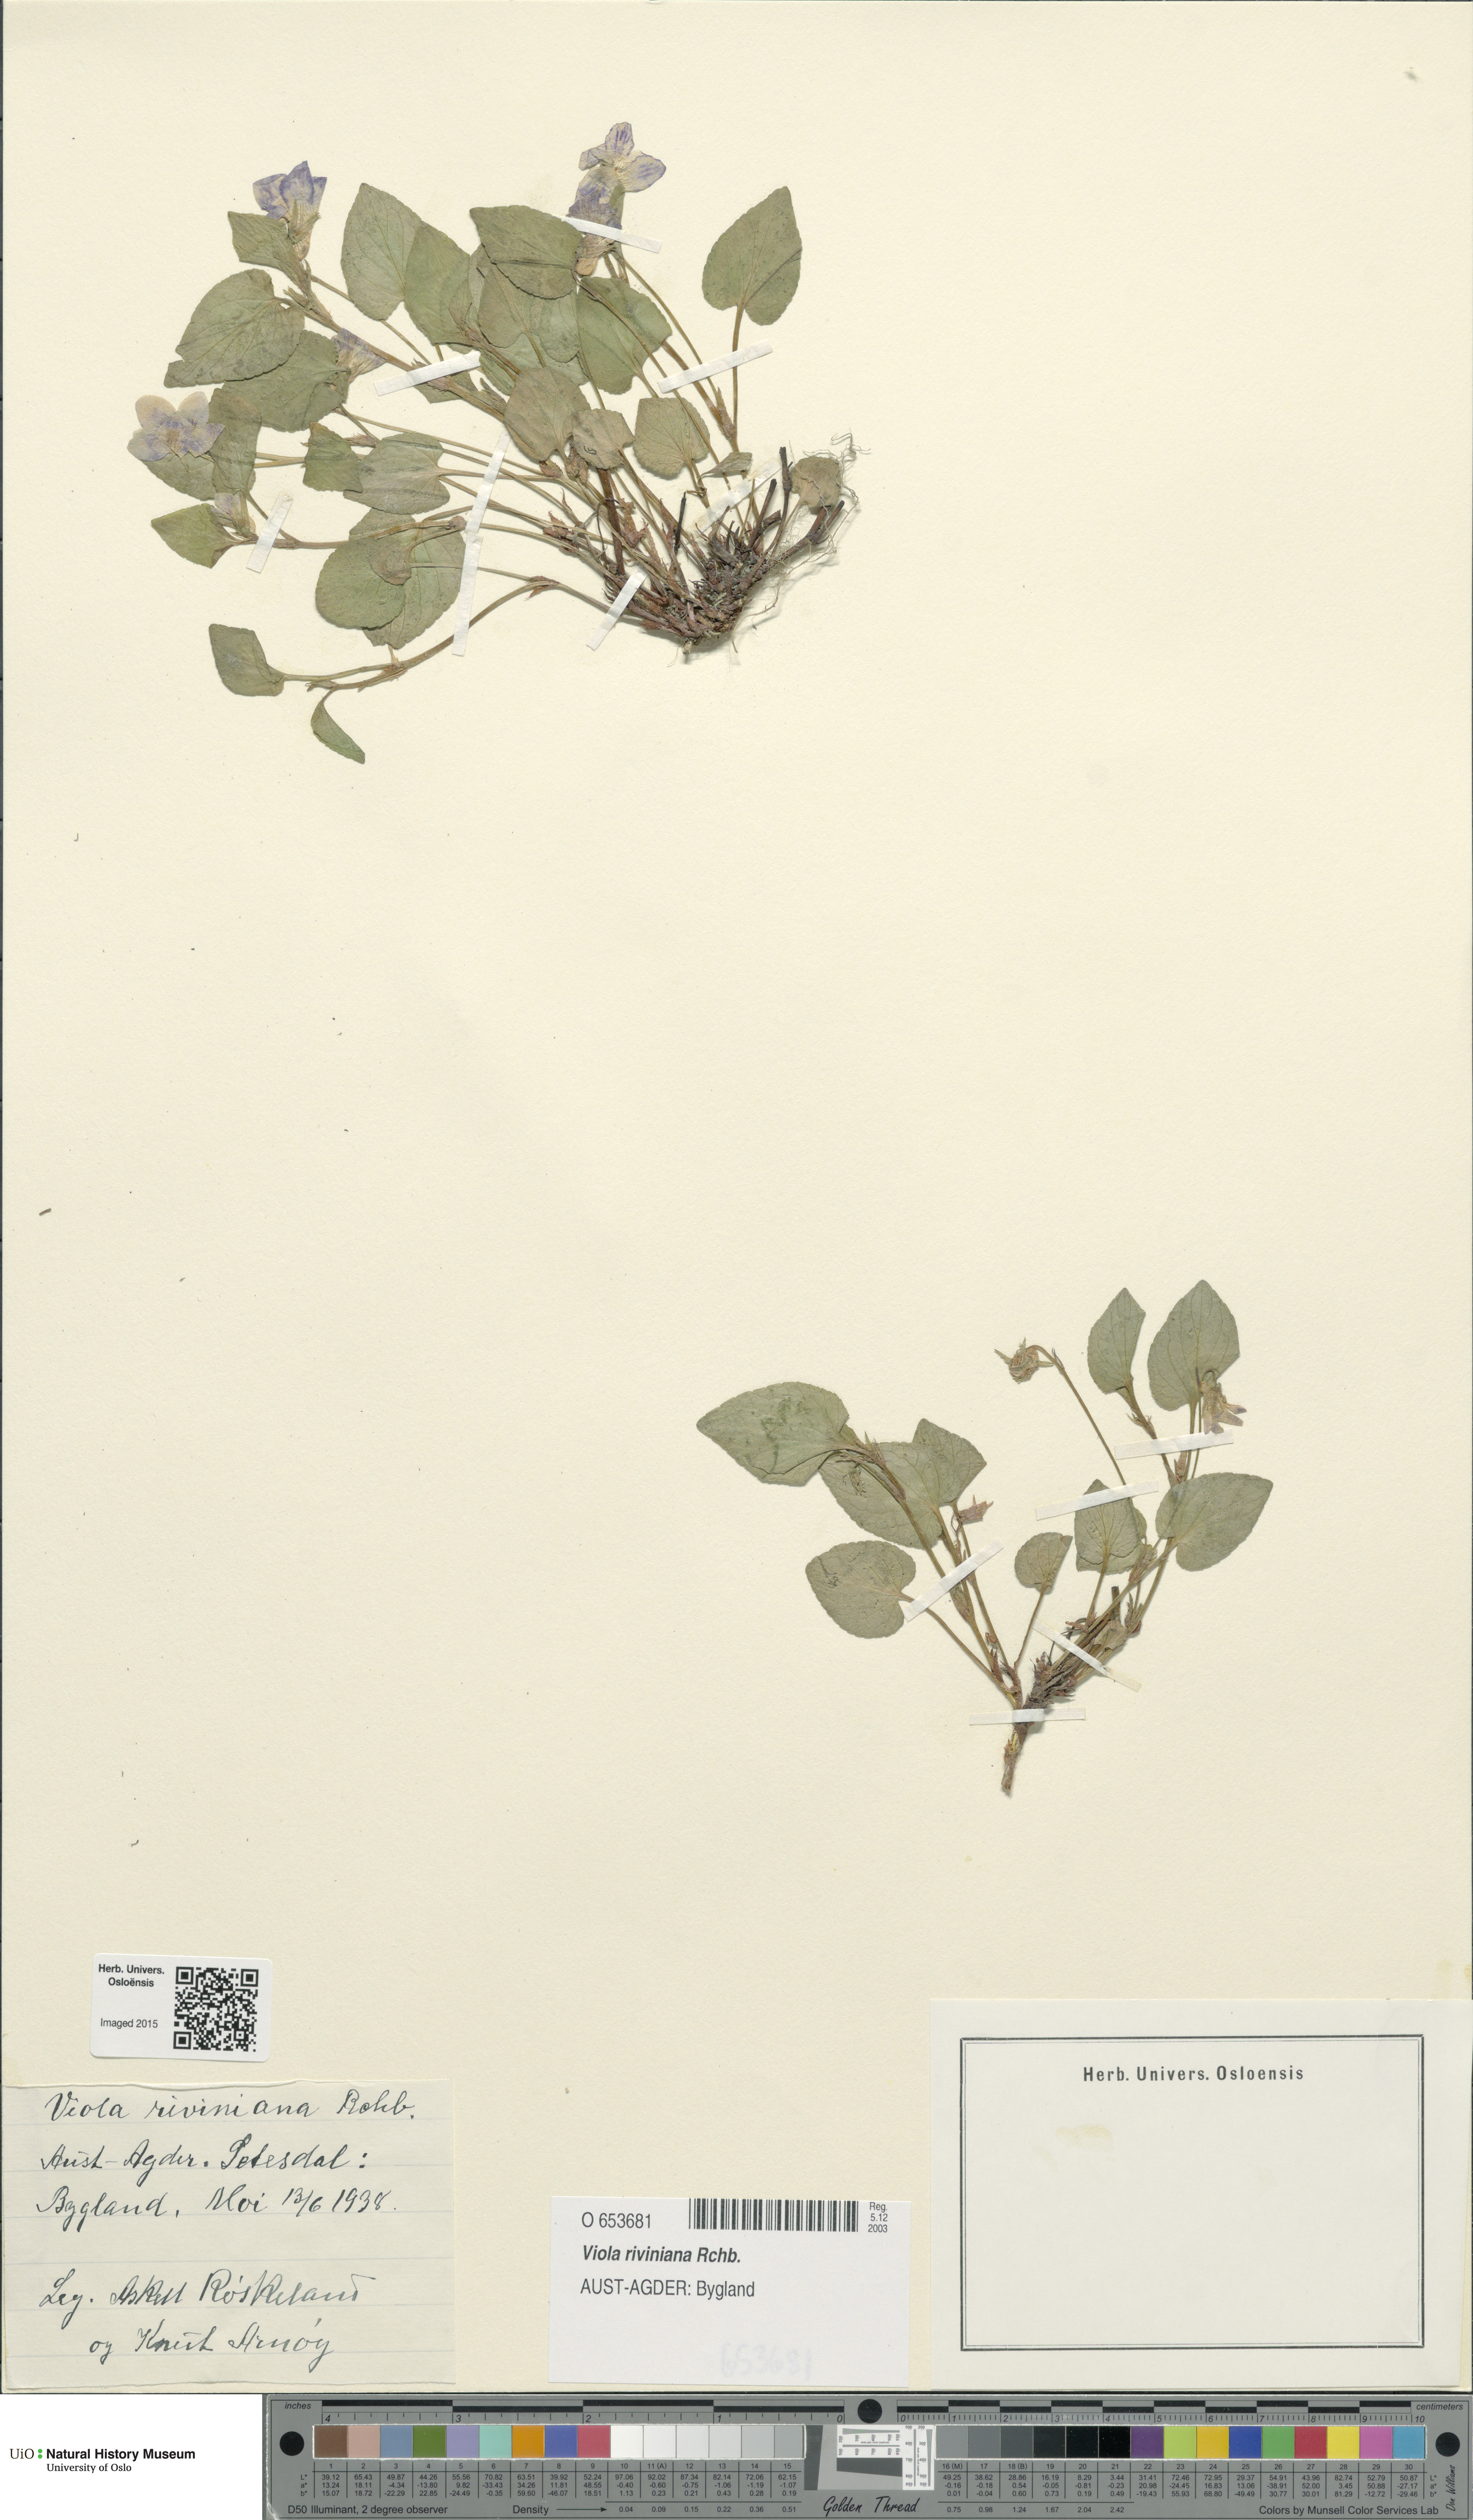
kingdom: Plantae
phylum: Tracheophyta
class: Magnoliopsida
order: Malpighiales
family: Violaceae
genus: Viola
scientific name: Viola riviniana
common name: Common dog-violet
